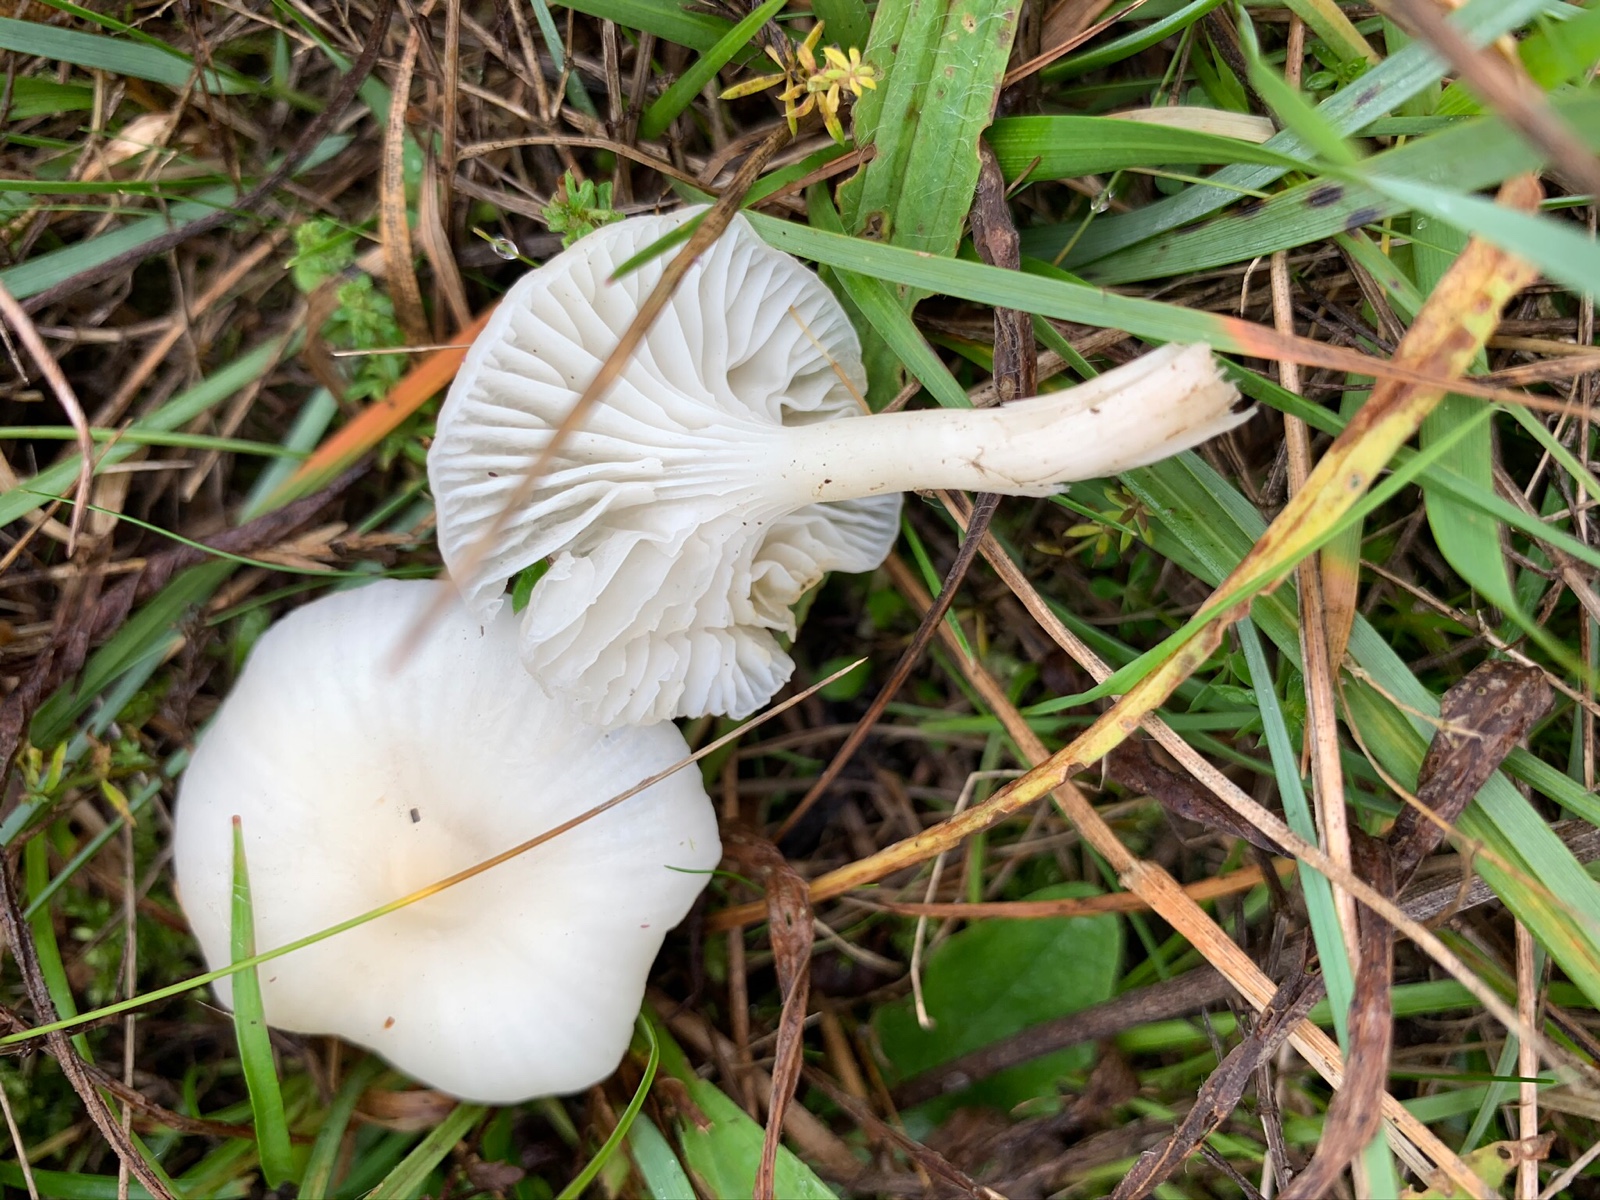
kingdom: Fungi
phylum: Basidiomycota
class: Agaricomycetes
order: Agaricales
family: Hygrophoraceae
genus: Cuphophyllus
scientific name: Cuphophyllus virgineus
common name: snehvid vokshat
